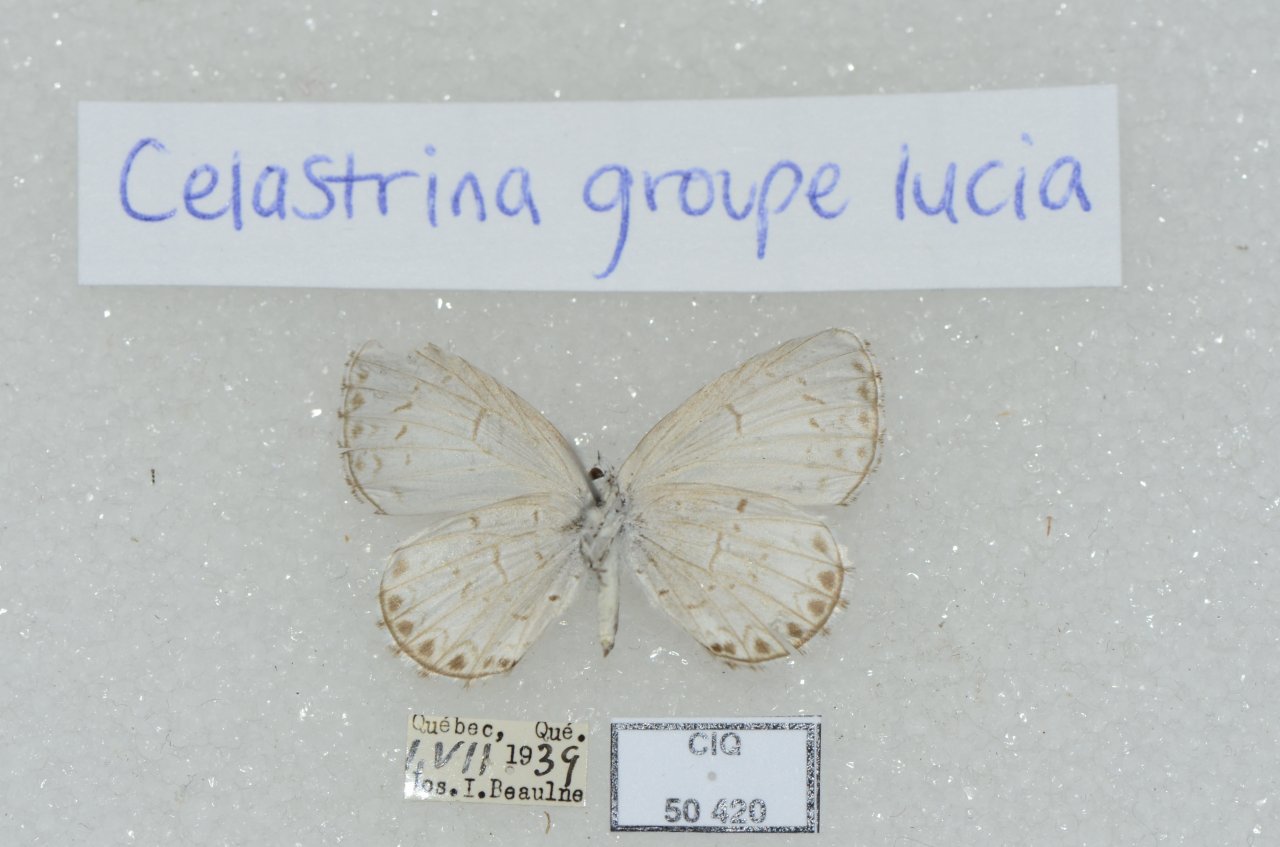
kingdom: Animalia
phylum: Arthropoda
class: Insecta
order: Lepidoptera
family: Lycaenidae
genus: Celastrina
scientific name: Celastrina lucia
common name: Northern Spring Azure
